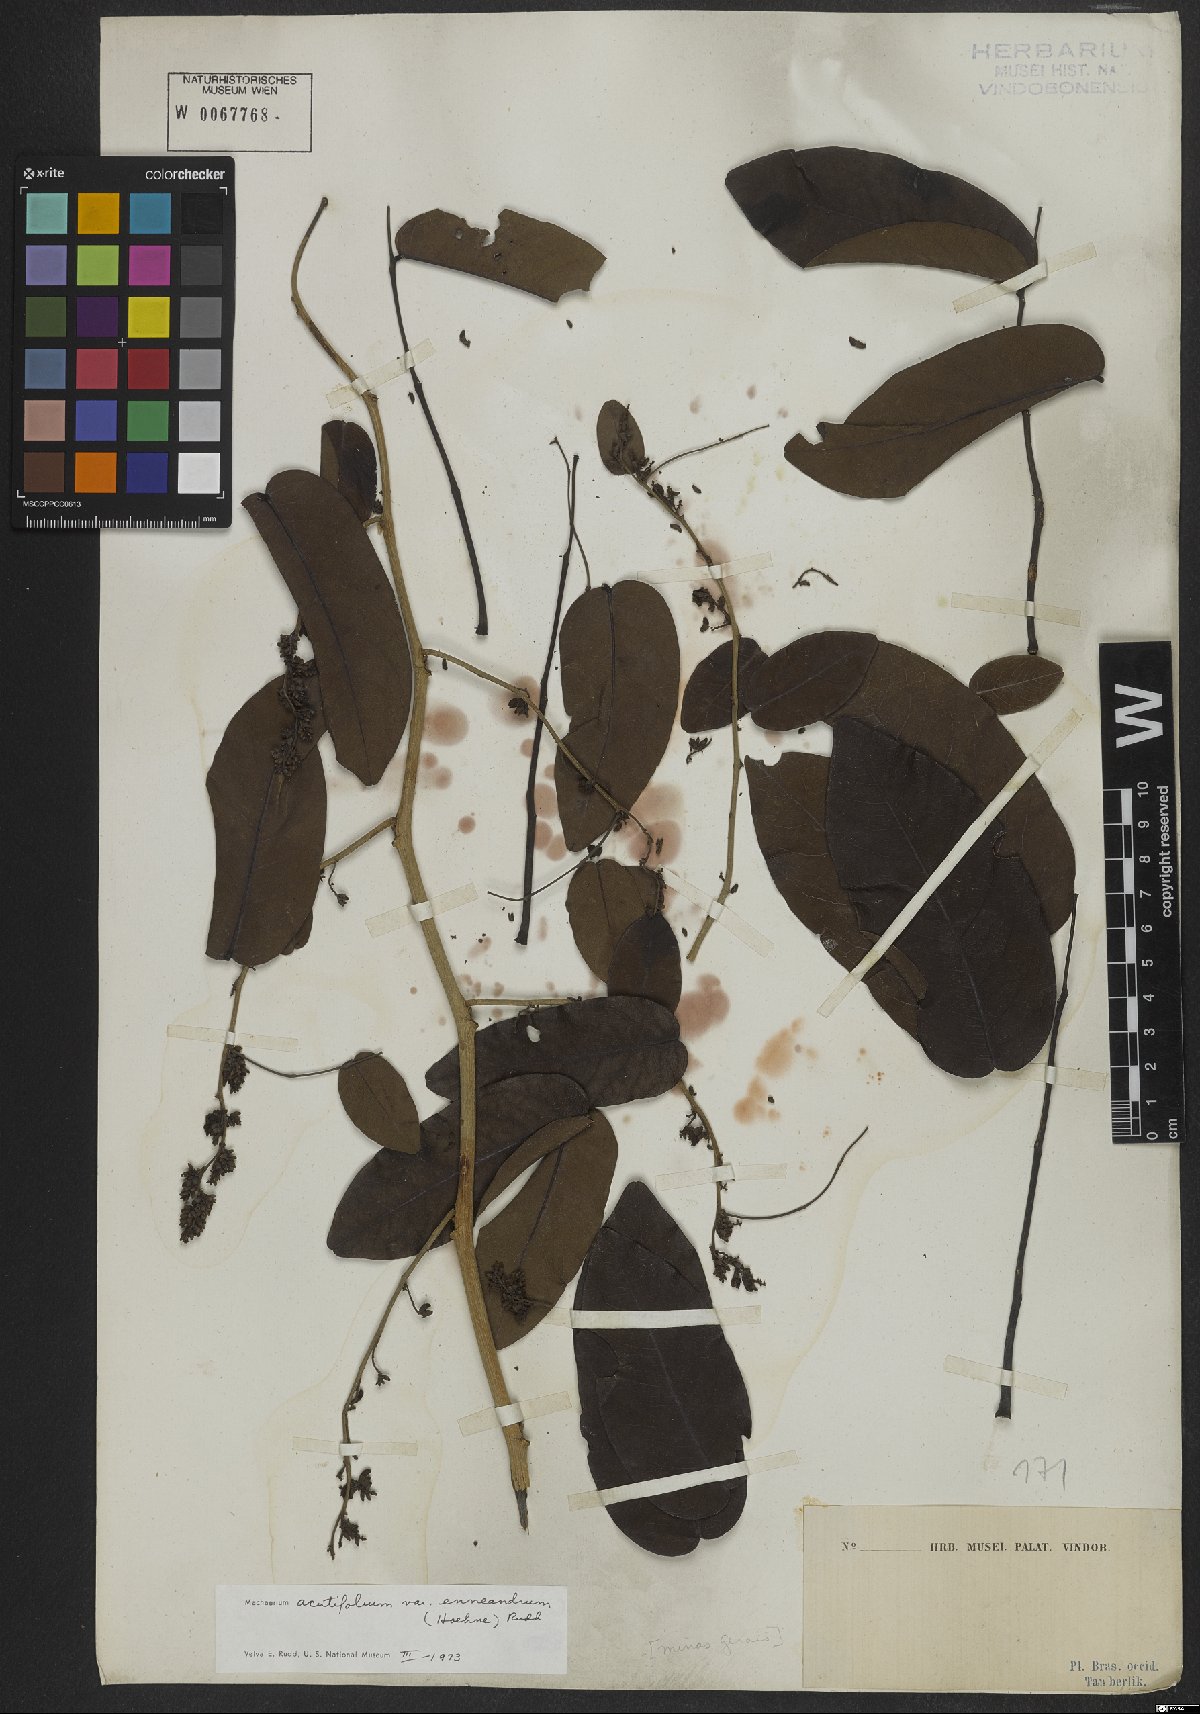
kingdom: Plantae
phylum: Tracheophyta
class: Magnoliopsida
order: Fabales
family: Fabaceae
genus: Machaerium
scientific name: Machaerium acutifolium
